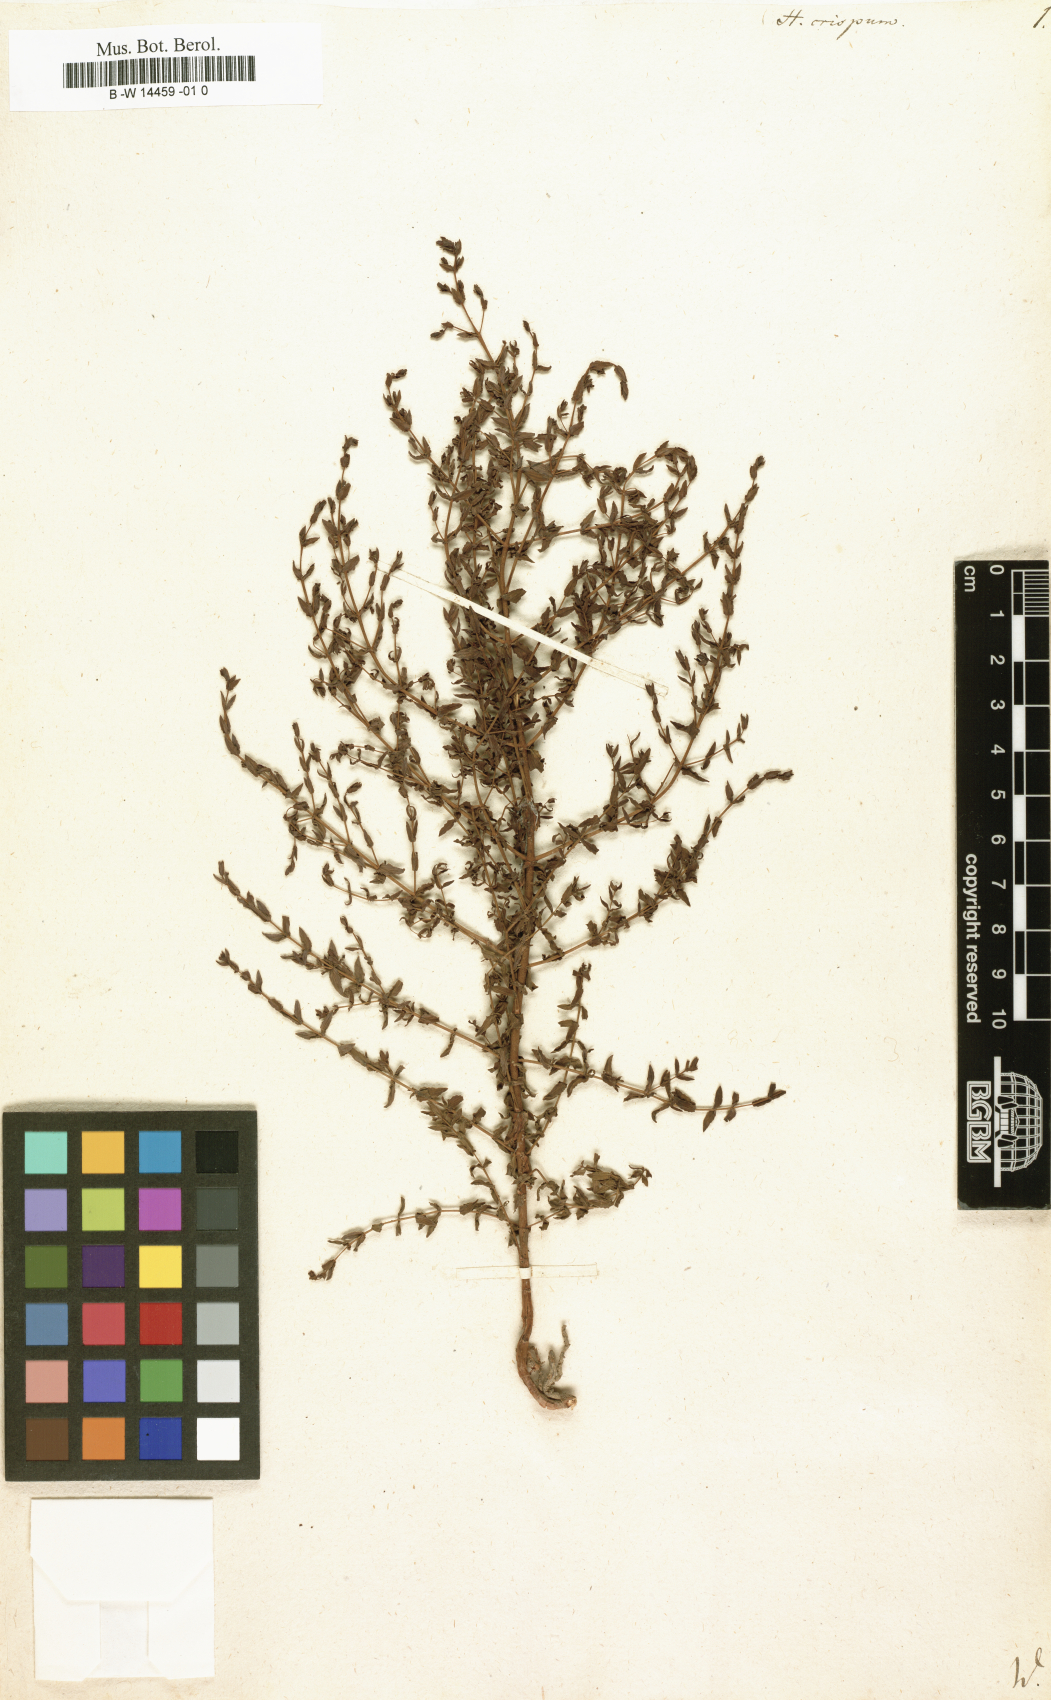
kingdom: Plantae
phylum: Tracheophyta
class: Magnoliopsida
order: Malpighiales
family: Hypericaceae
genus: Hypericum
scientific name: Hypericum triquetrifolium
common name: Tangled hypericum
